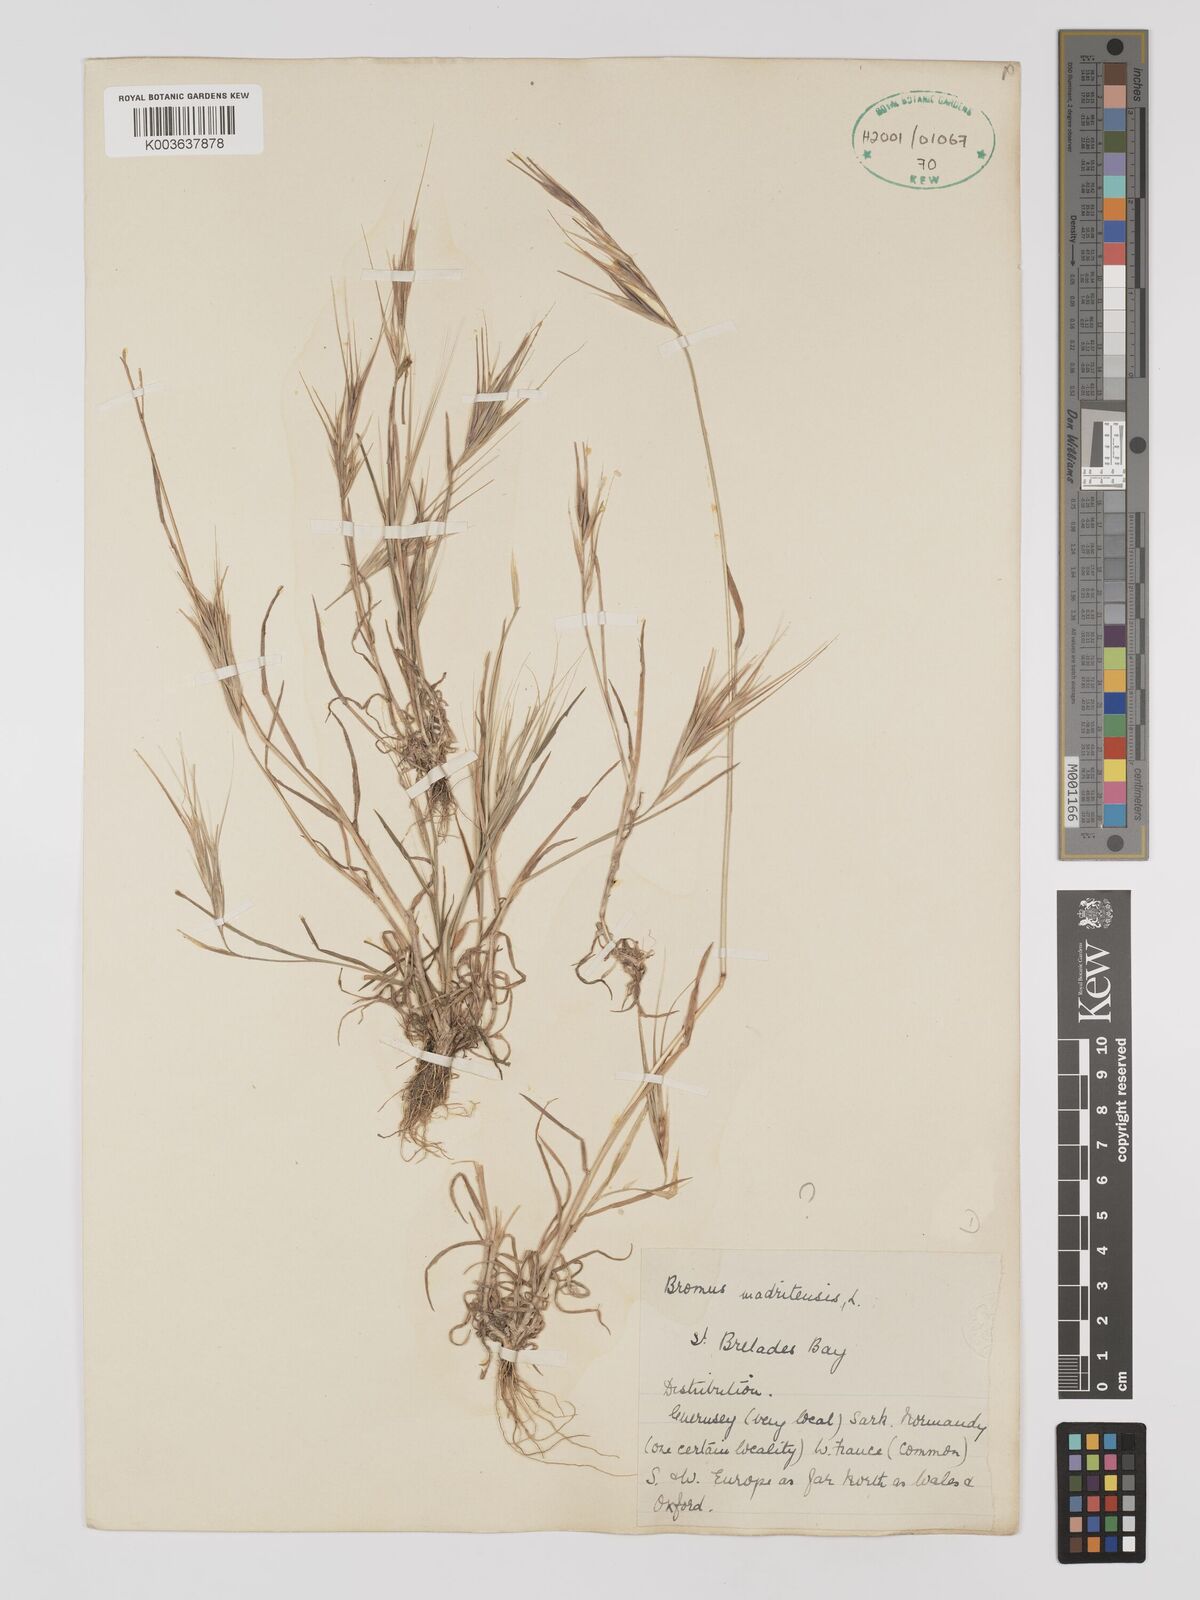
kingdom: Plantae
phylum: Tracheophyta
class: Liliopsida
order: Poales
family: Poaceae
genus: Bromus
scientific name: Bromus
